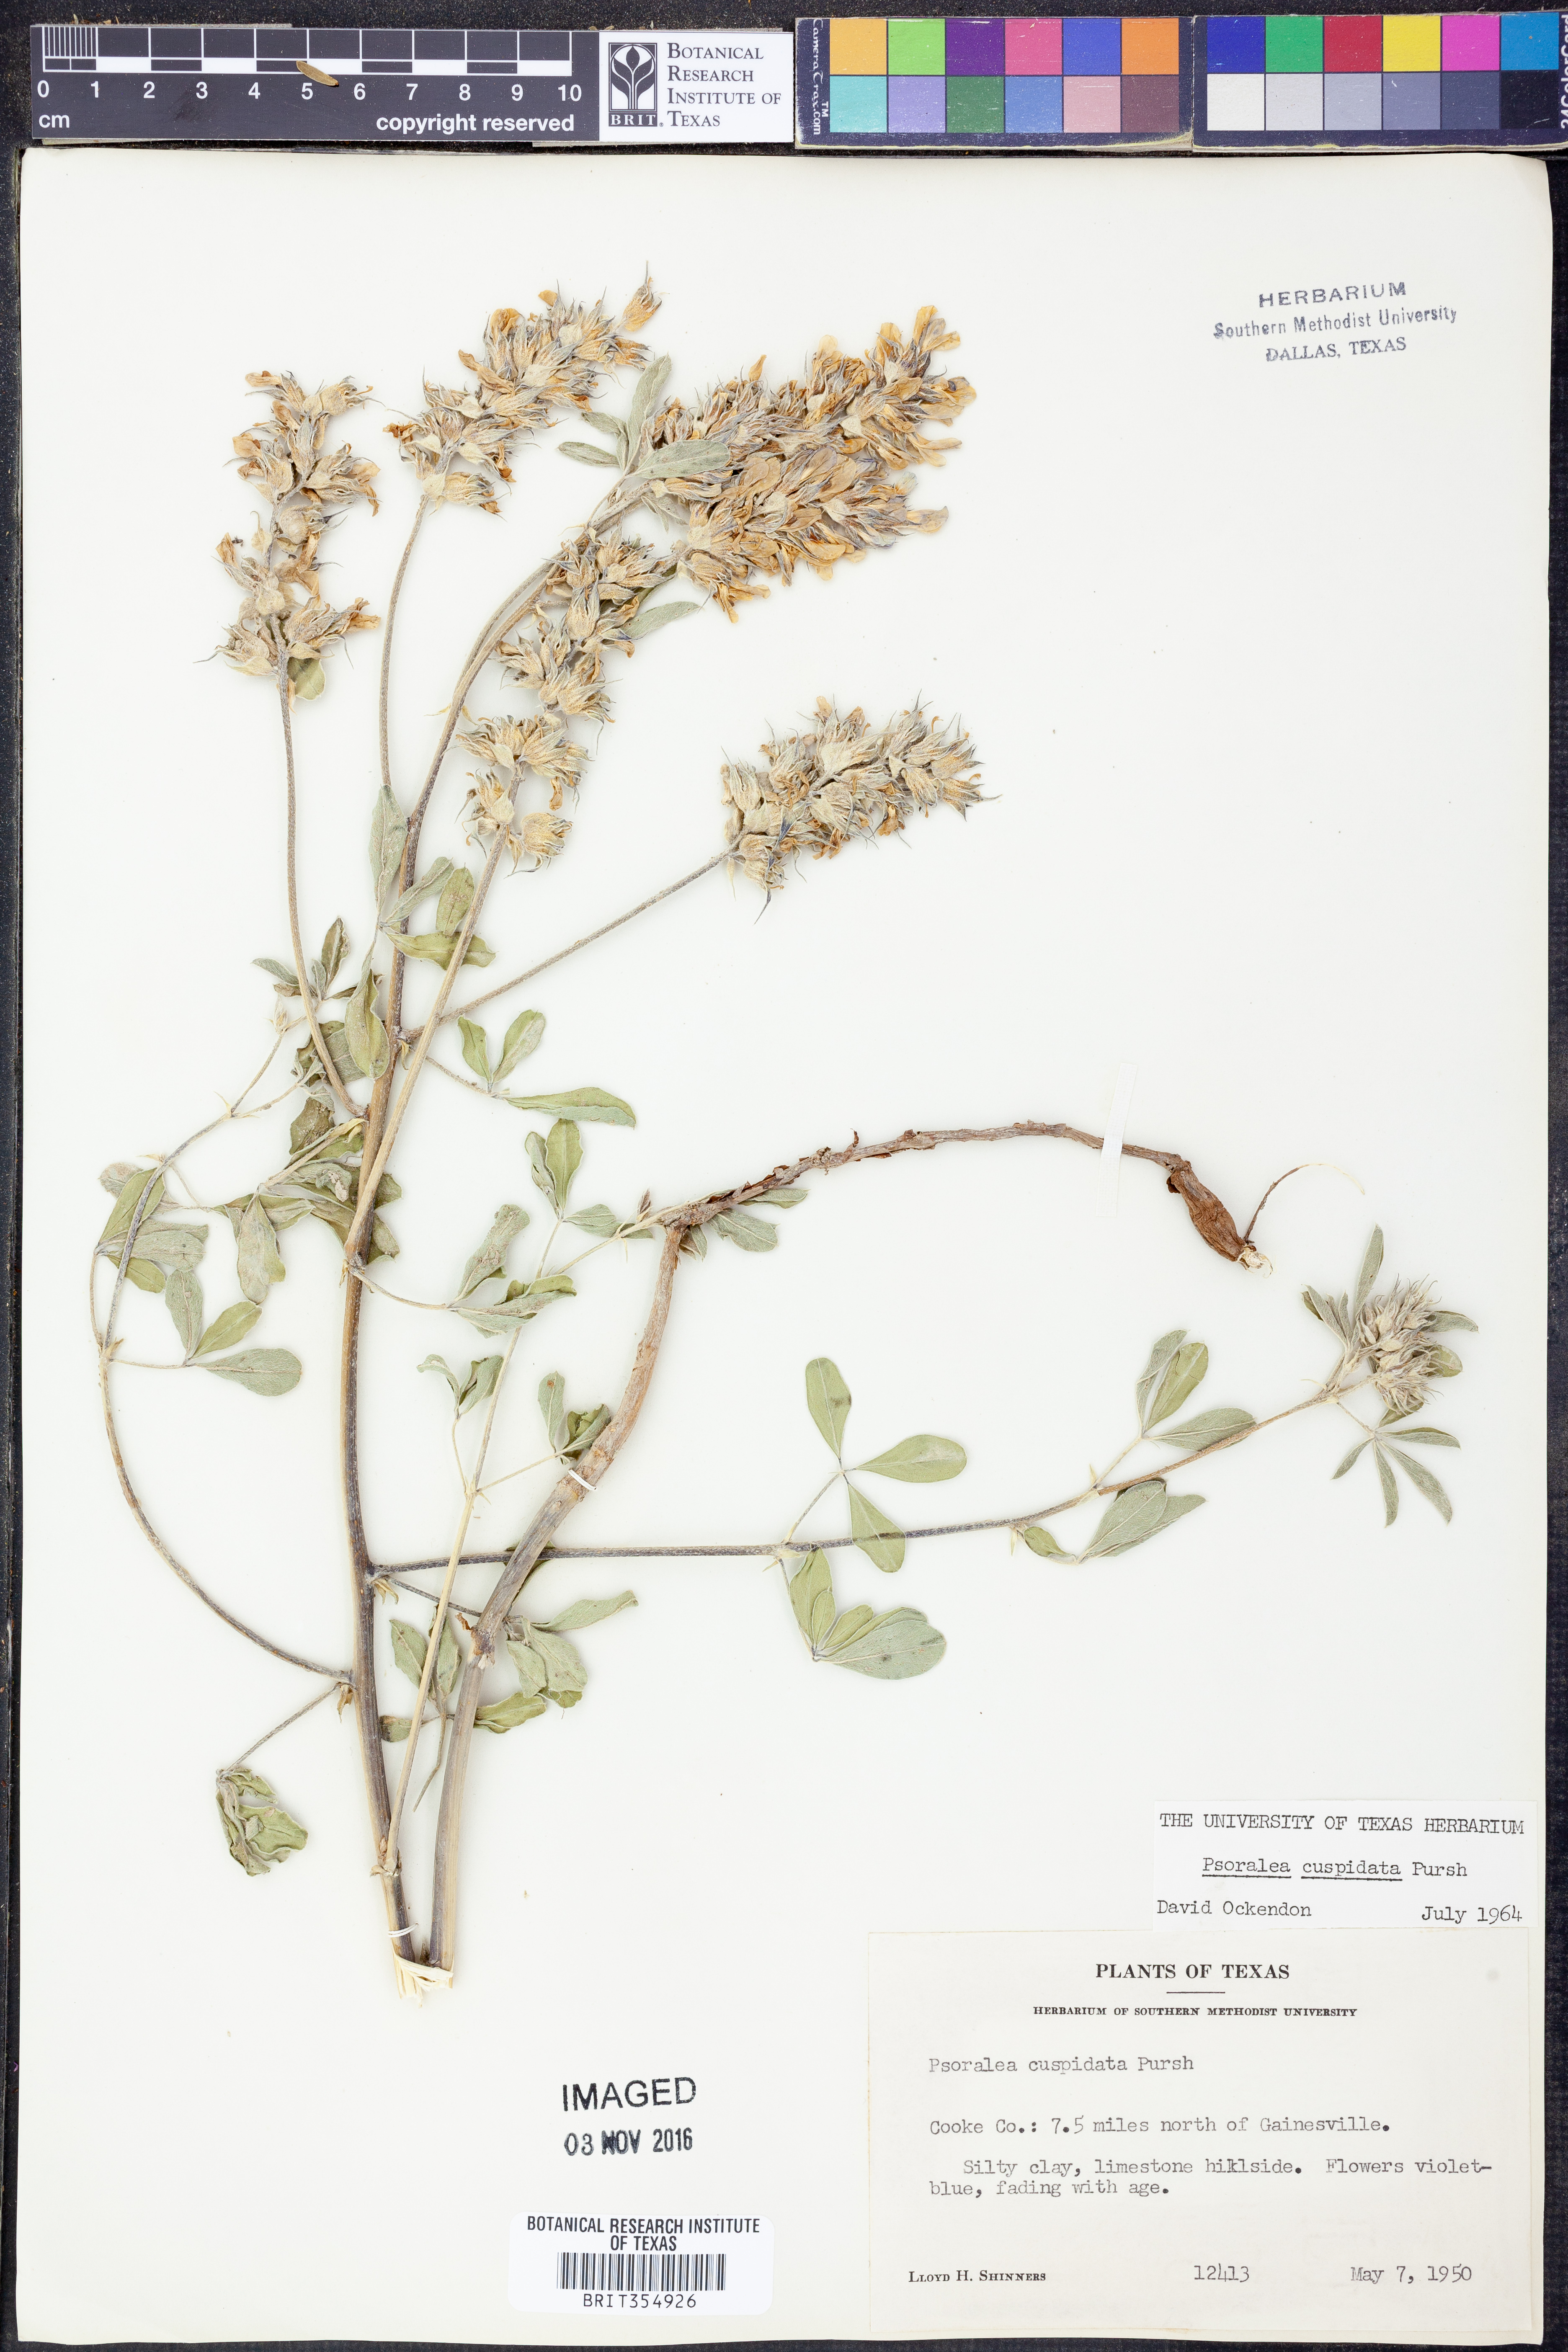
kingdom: Plantae
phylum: Tracheophyta
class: Magnoliopsida
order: Fabales
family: Fabaceae
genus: Pediomelum
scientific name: Pediomelum cuspidatum
